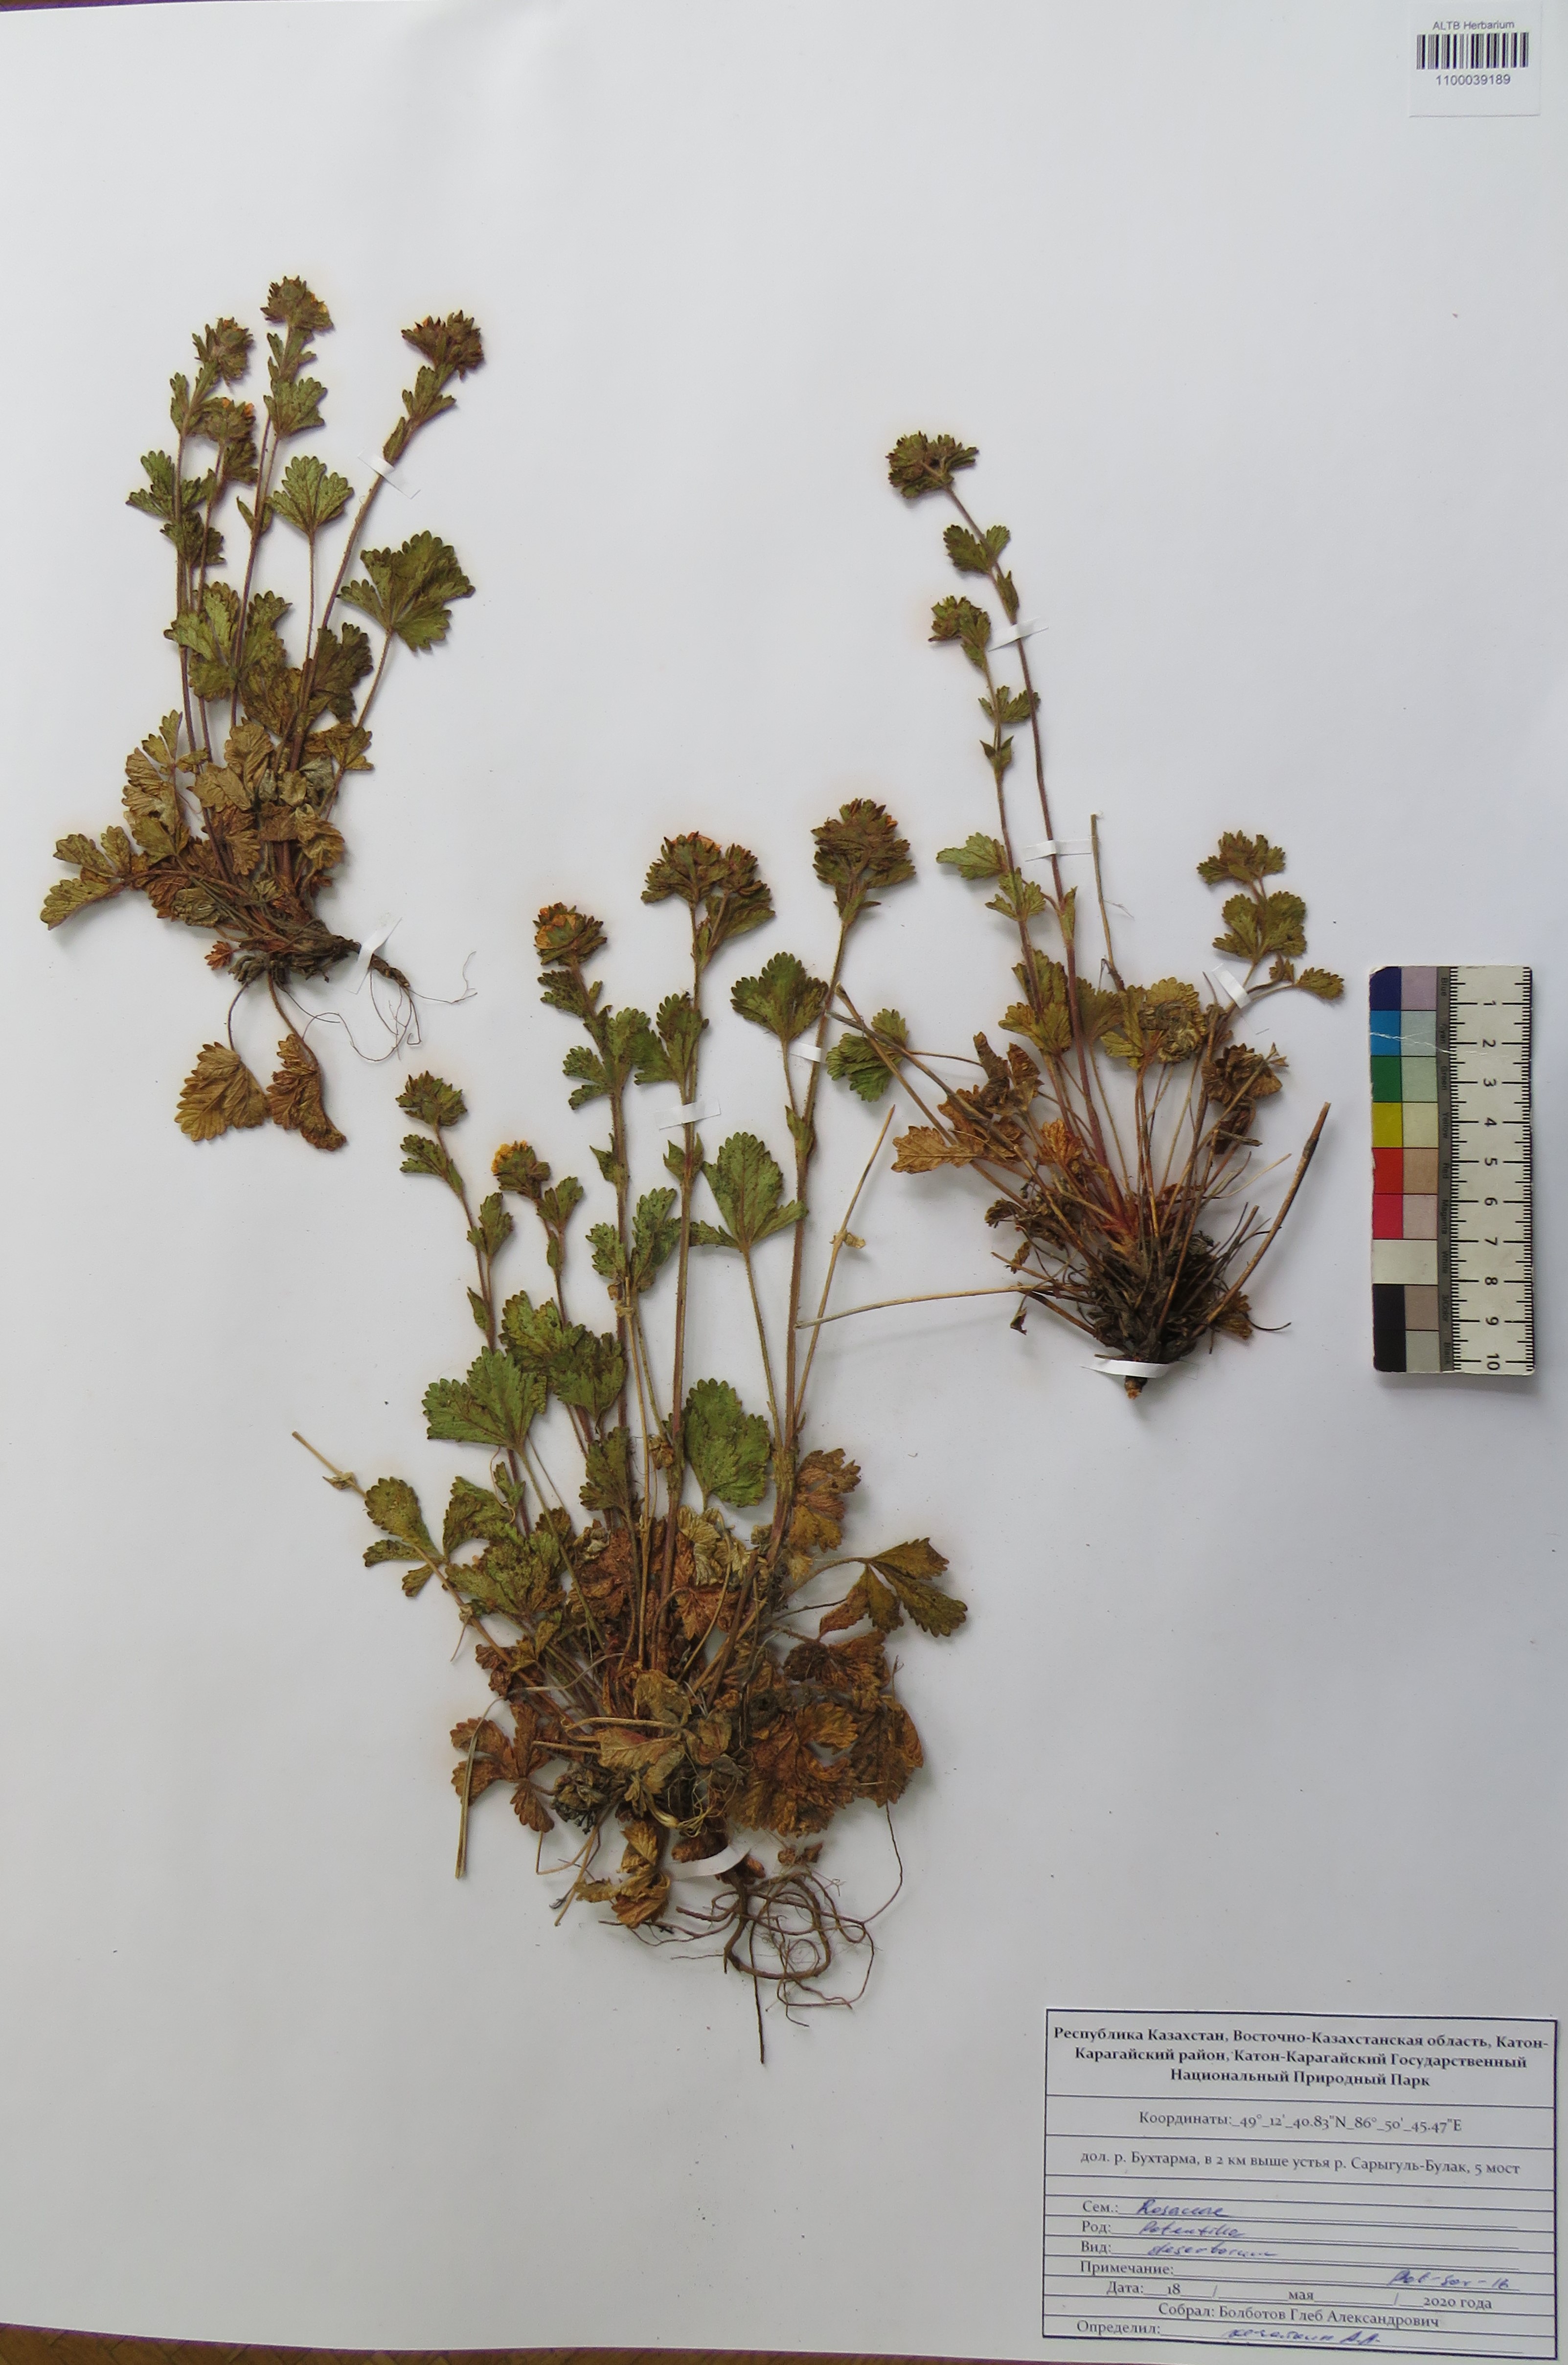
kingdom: Plantae
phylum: Tracheophyta
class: Magnoliopsida
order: Rosales
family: Rosaceae
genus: Potentilla
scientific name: Potentilla desertorum
